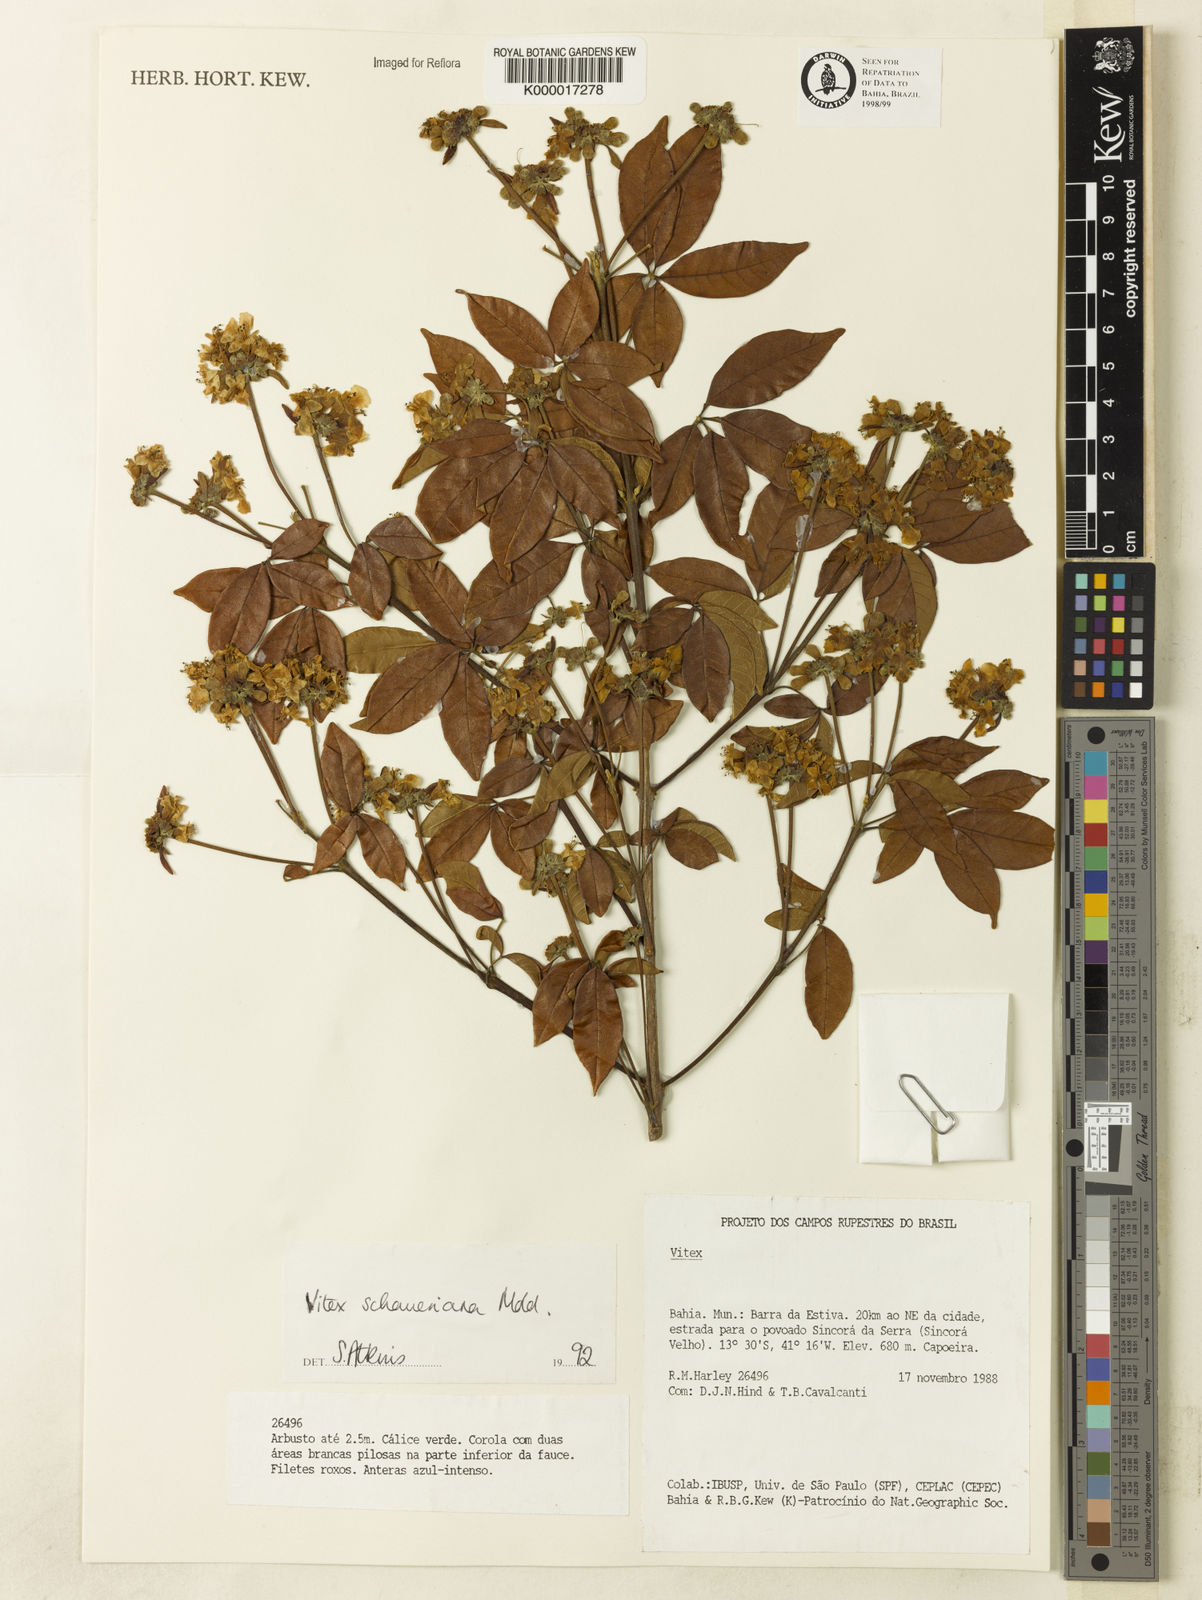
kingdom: Plantae
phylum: Tracheophyta
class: Magnoliopsida
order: Lamiales
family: Lamiaceae
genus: Vitex
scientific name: Vitex schaueriana
